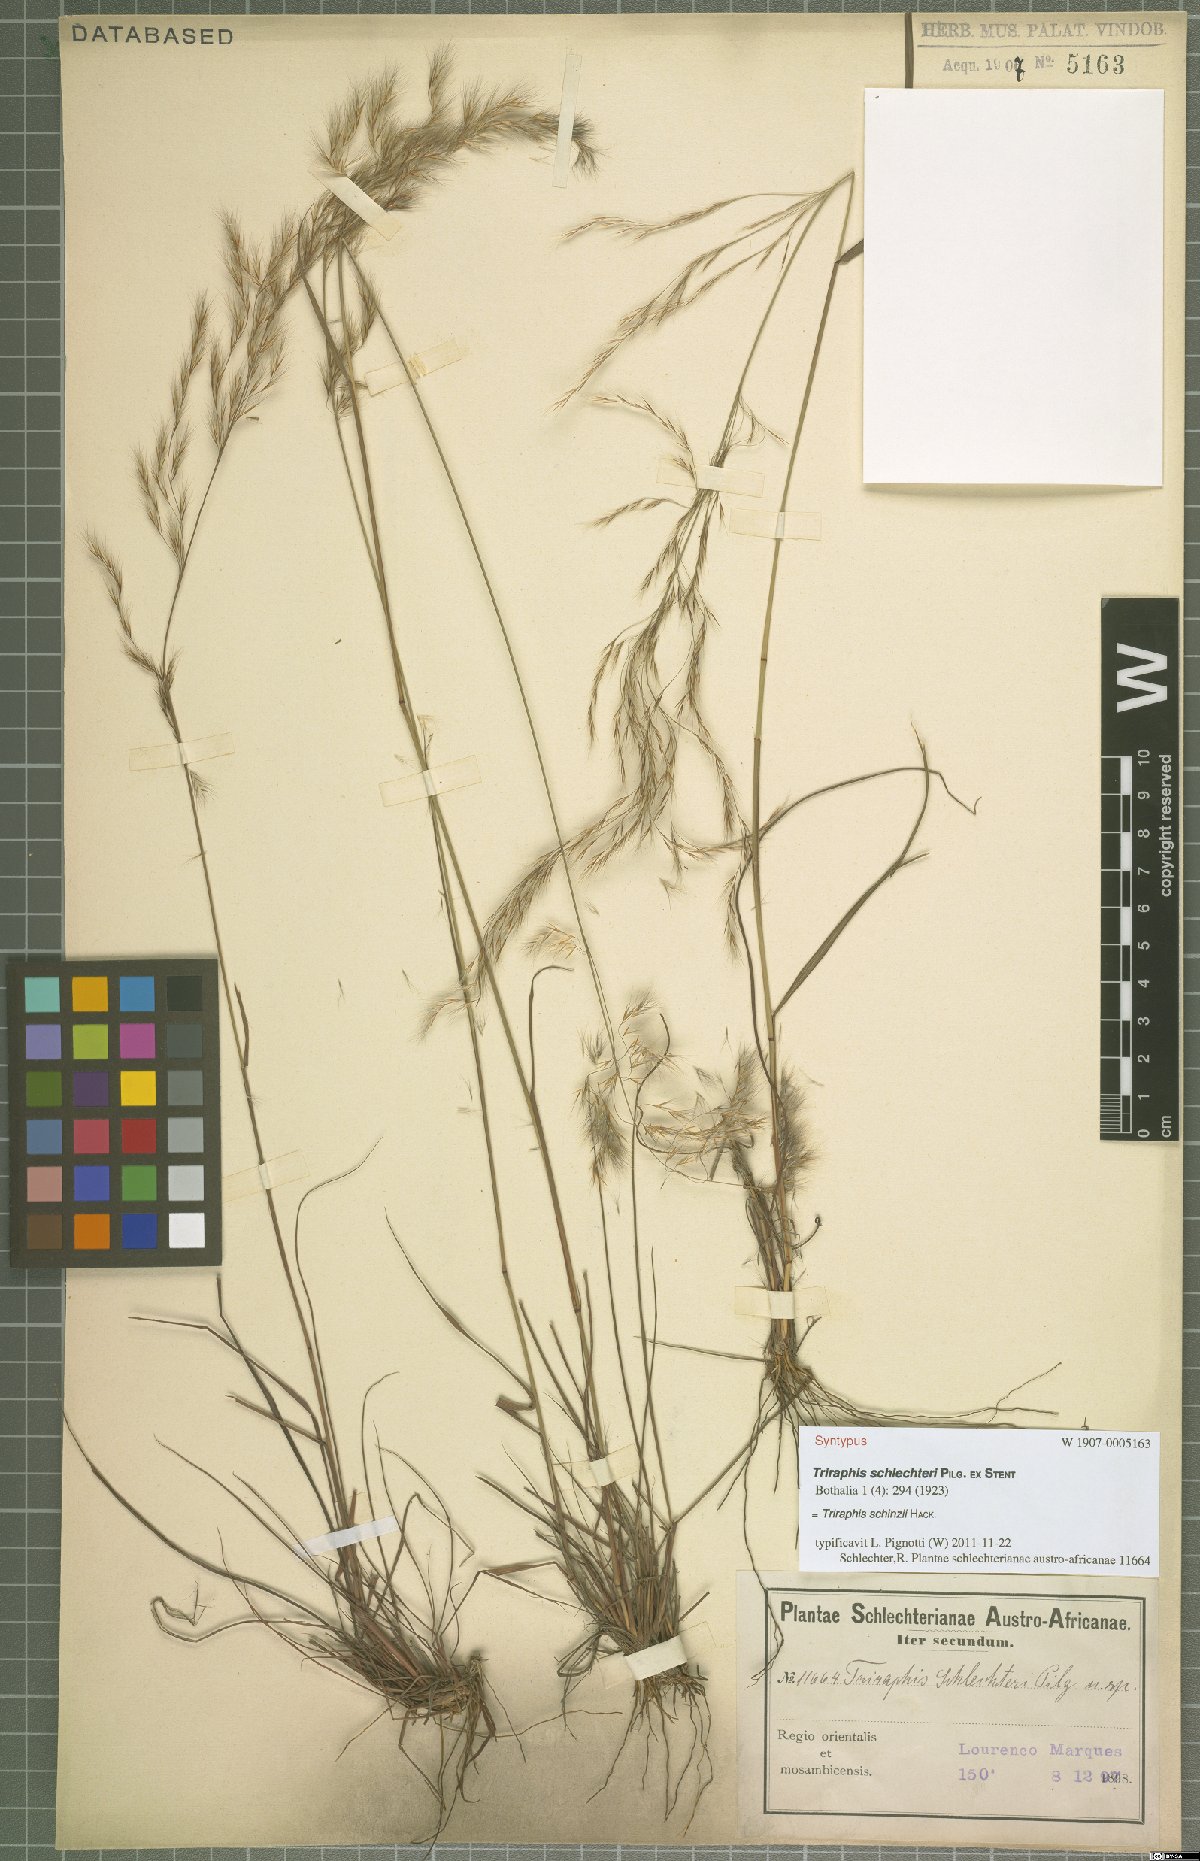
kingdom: Plantae
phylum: Tracheophyta
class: Liliopsida
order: Poales
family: Poaceae
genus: Triraphis
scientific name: Triraphis schinzii
